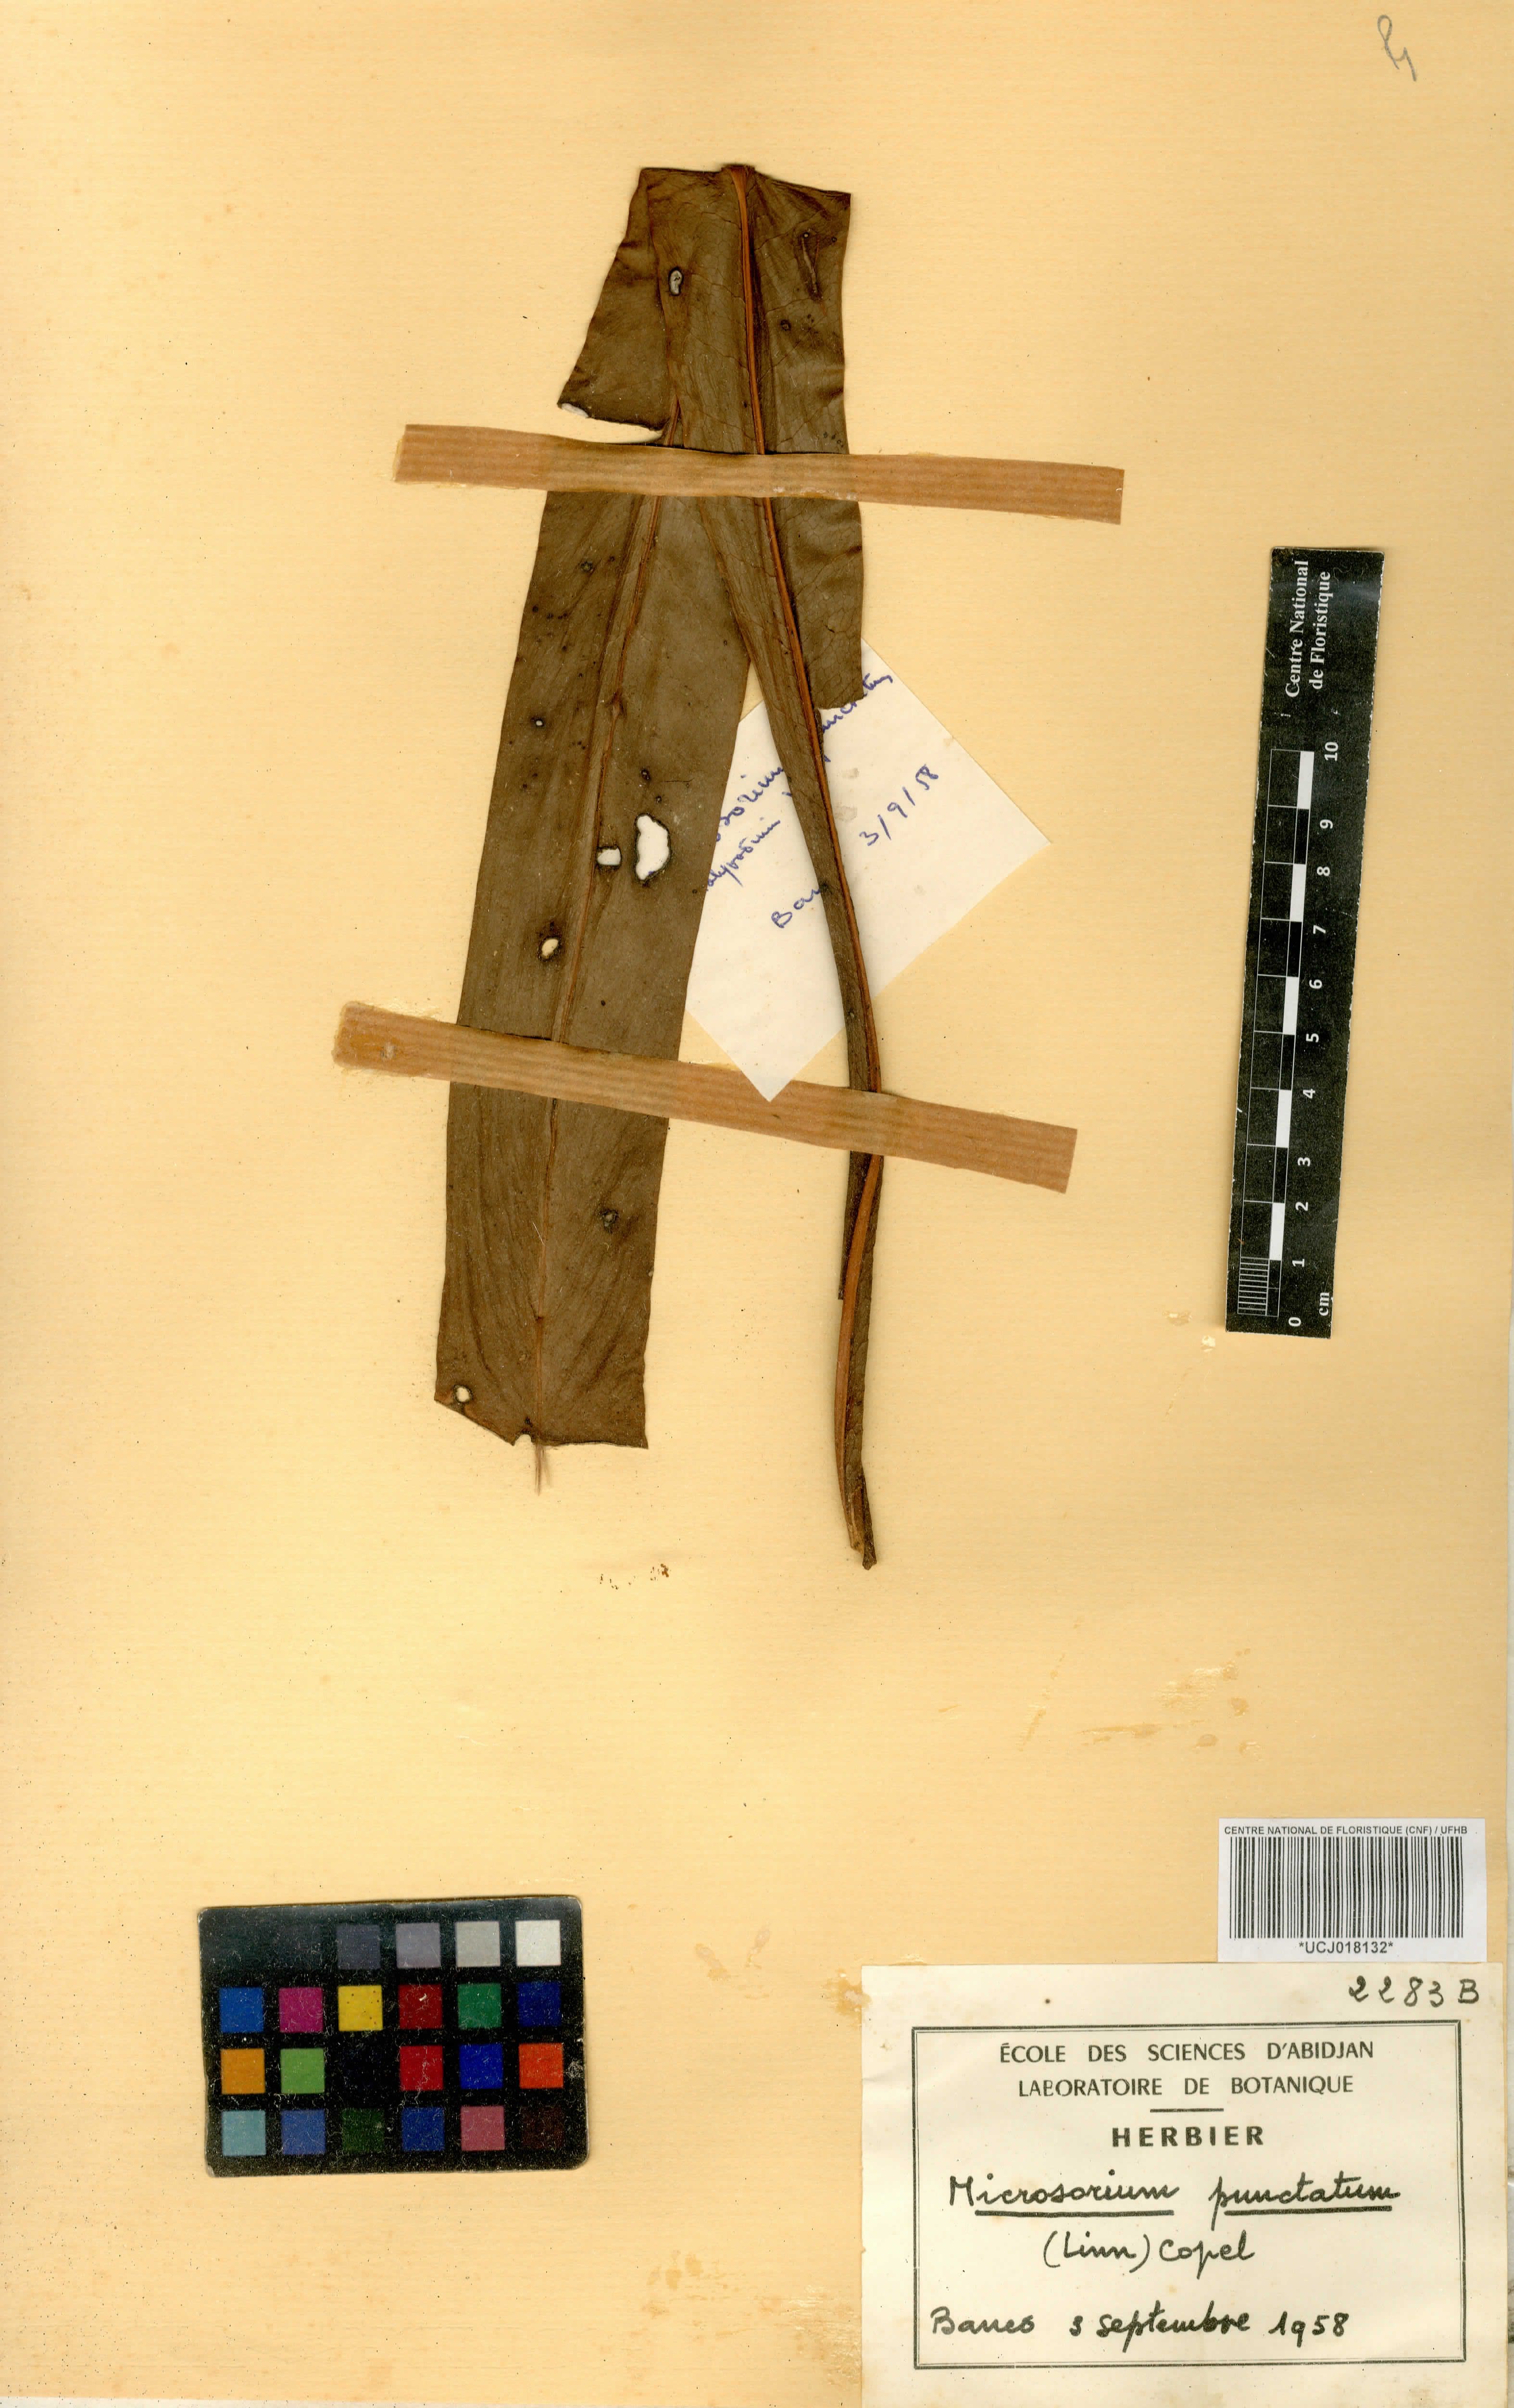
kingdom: Plantae
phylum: Tracheophyta
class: Polypodiopsida
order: Polypodiales
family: Polypodiaceae
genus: Microsorum
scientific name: Microsorum punctatum
